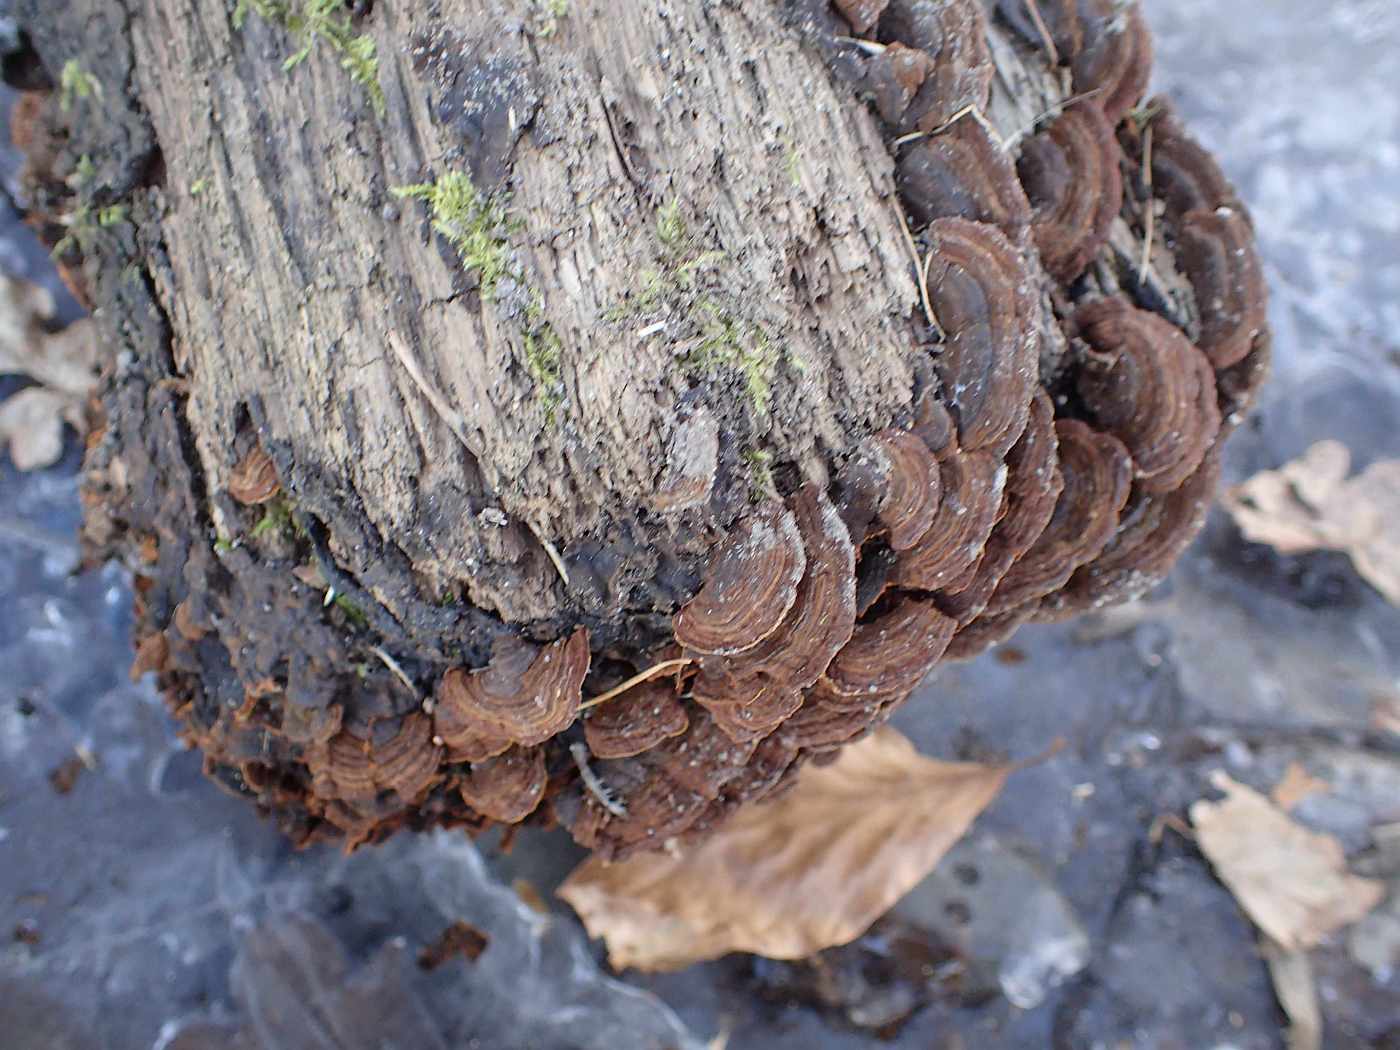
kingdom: Fungi
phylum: Basidiomycota
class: Agaricomycetes
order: Hymenochaetales
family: Hymenochaetaceae
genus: Hymenochaete
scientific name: Hymenochaete rubiginosa
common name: stiv ruslædersvamp
